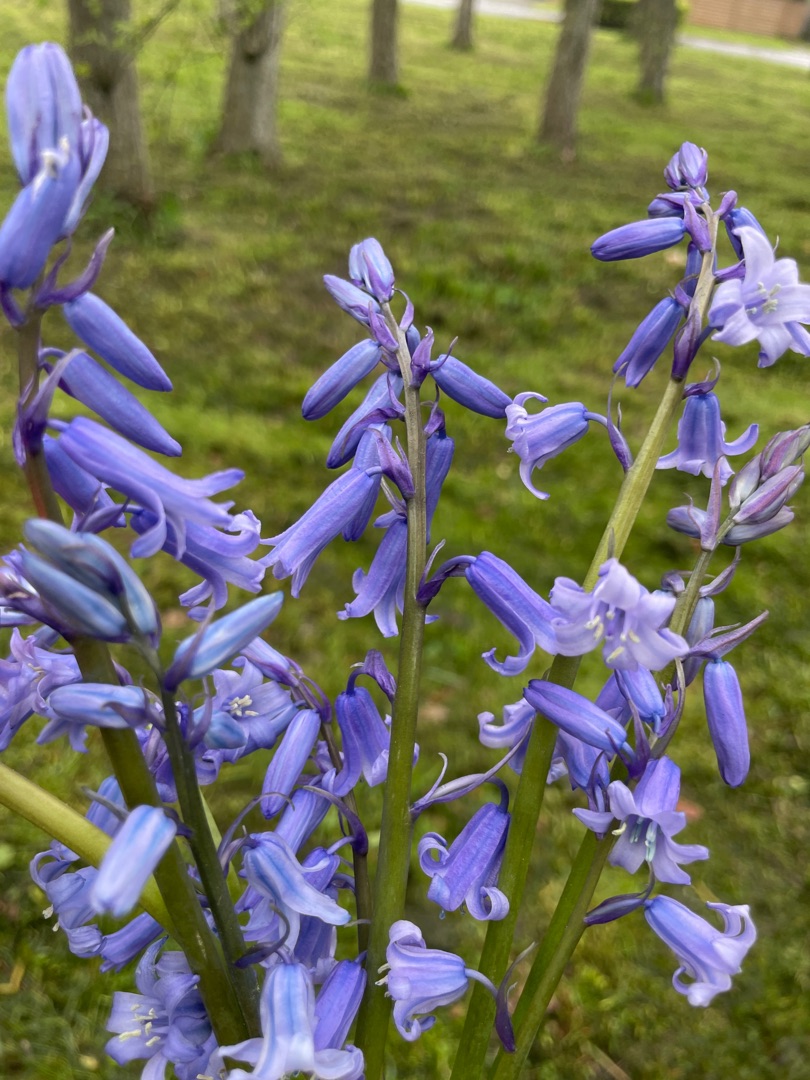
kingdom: Plantae
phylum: Tracheophyta
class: Liliopsida
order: Asparagales
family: Asparagaceae
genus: Hyacinthoides
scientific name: Hyacinthoides massartiana
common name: Hybrid-klokkeskilla
